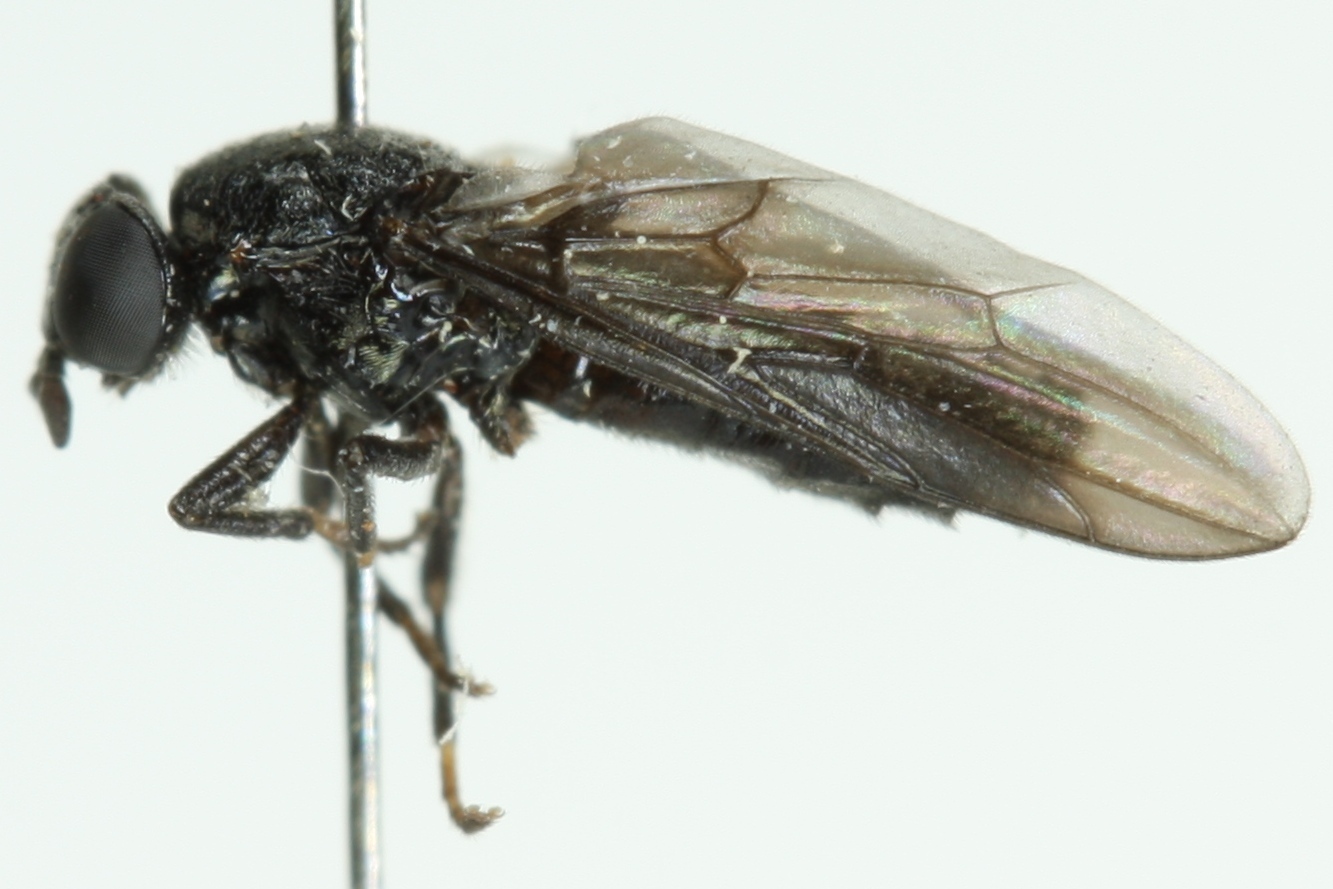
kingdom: Animalia
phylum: Arthropoda
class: Insecta
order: Diptera
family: Scenopinidae
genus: Scenopinus
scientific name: Scenopinus niger
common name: Forest windowfly
